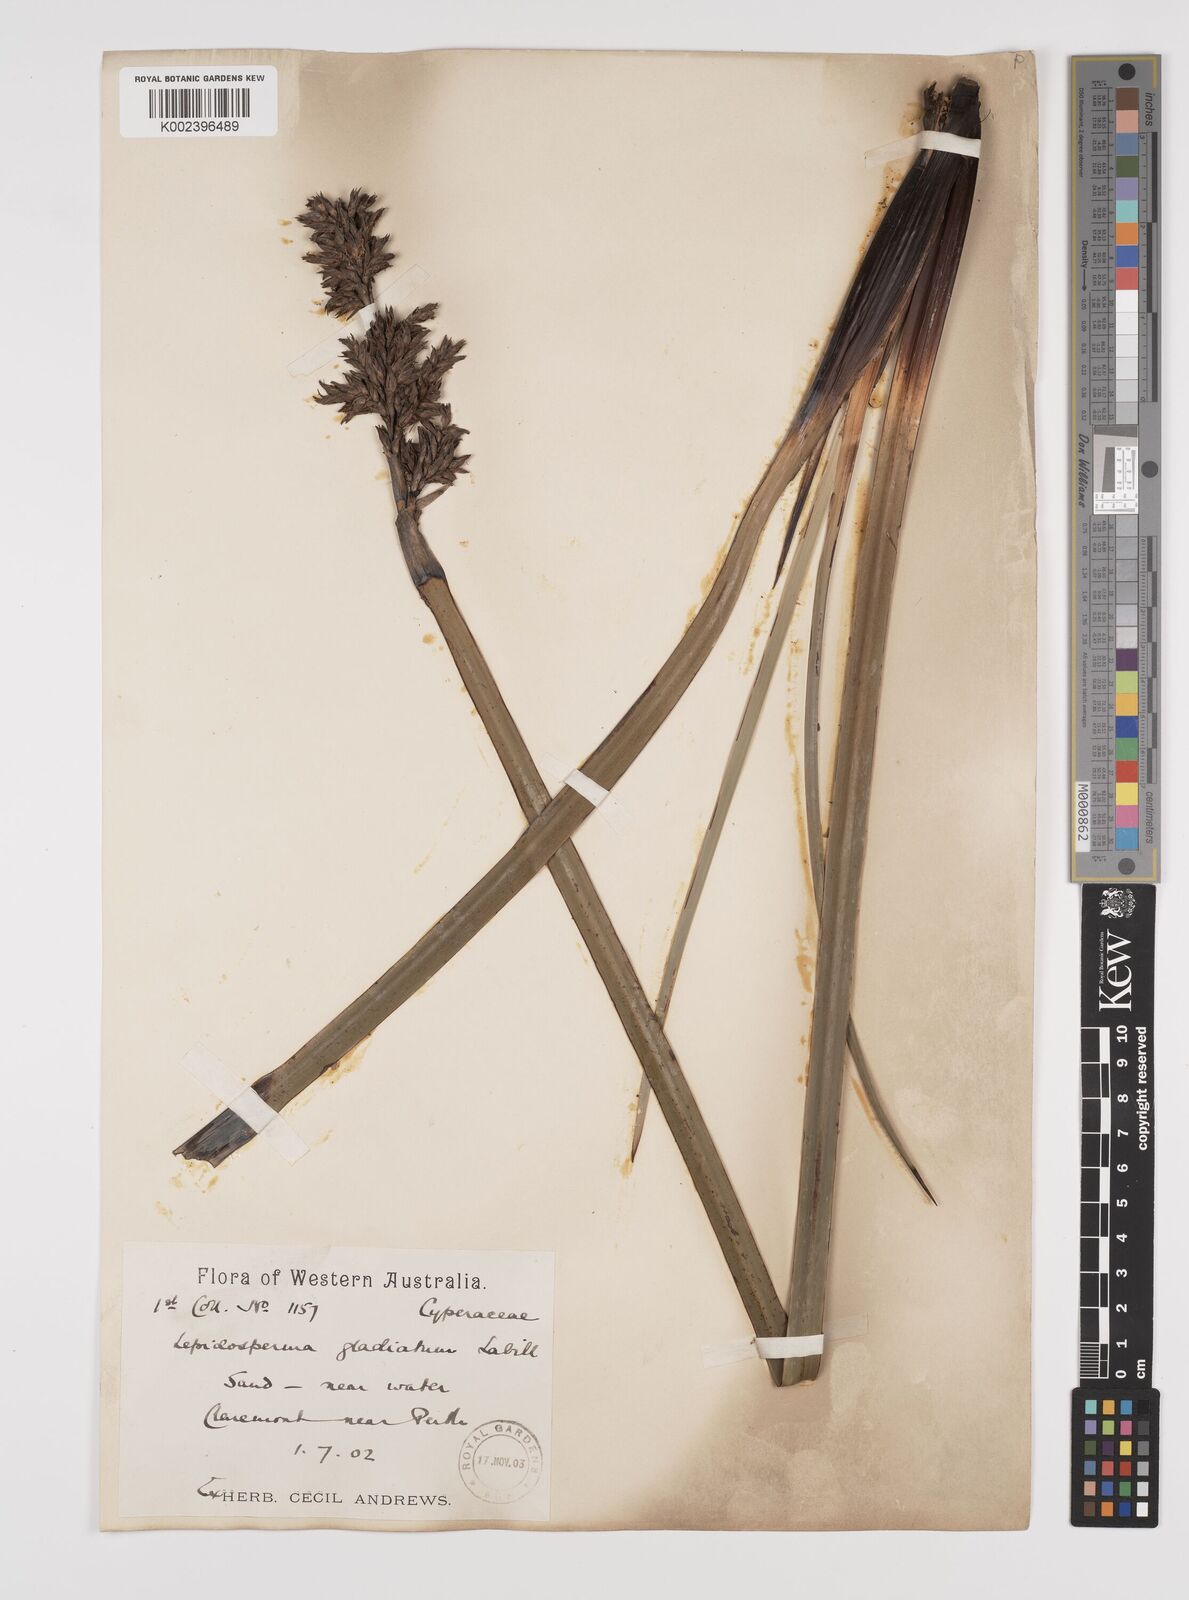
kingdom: Plantae
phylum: Tracheophyta
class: Liliopsida
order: Poales
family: Cyperaceae
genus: Lepidosperma
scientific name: Lepidosperma gladiatum
